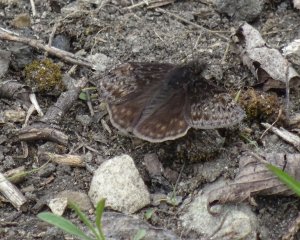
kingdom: Animalia
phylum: Arthropoda
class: Insecta
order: Lepidoptera
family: Hesperiidae
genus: Gesta
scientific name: Gesta
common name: Juvenal's Duskywing
